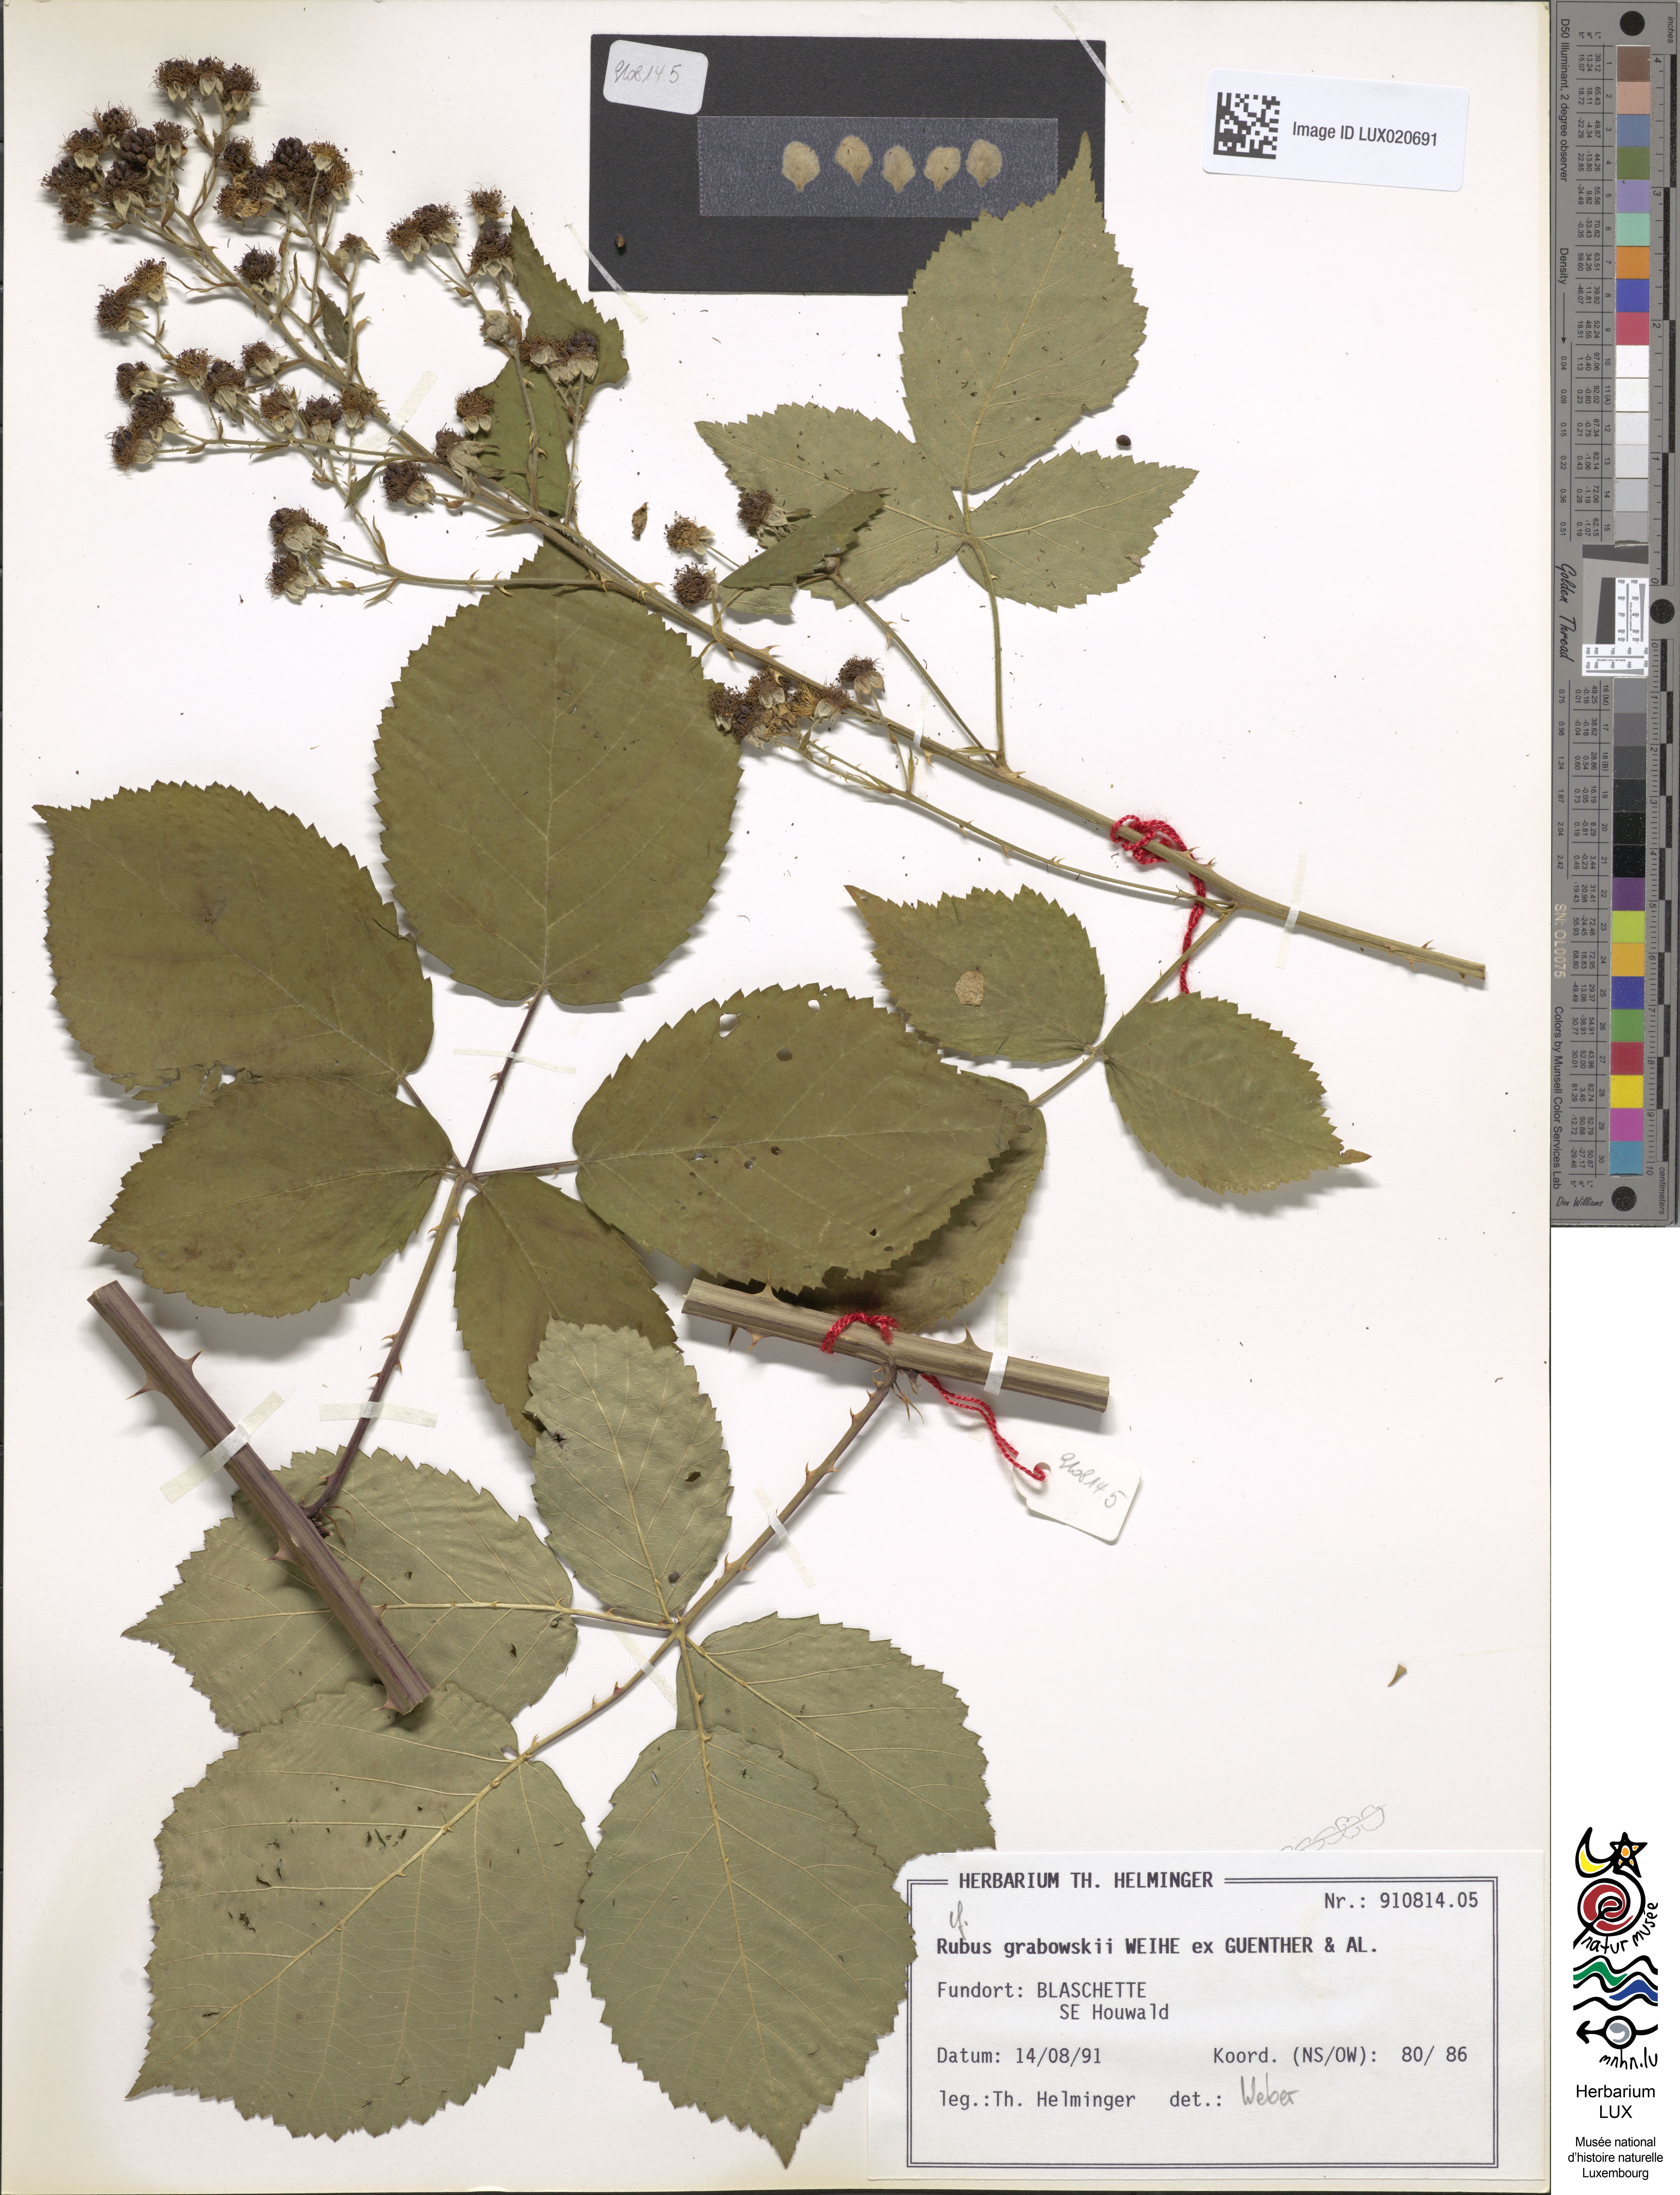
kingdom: Plantae
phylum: Tracheophyta
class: Magnoliopsida
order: Rosales
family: Rosaceae
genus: Rubus
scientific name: Rubus grabowskii
